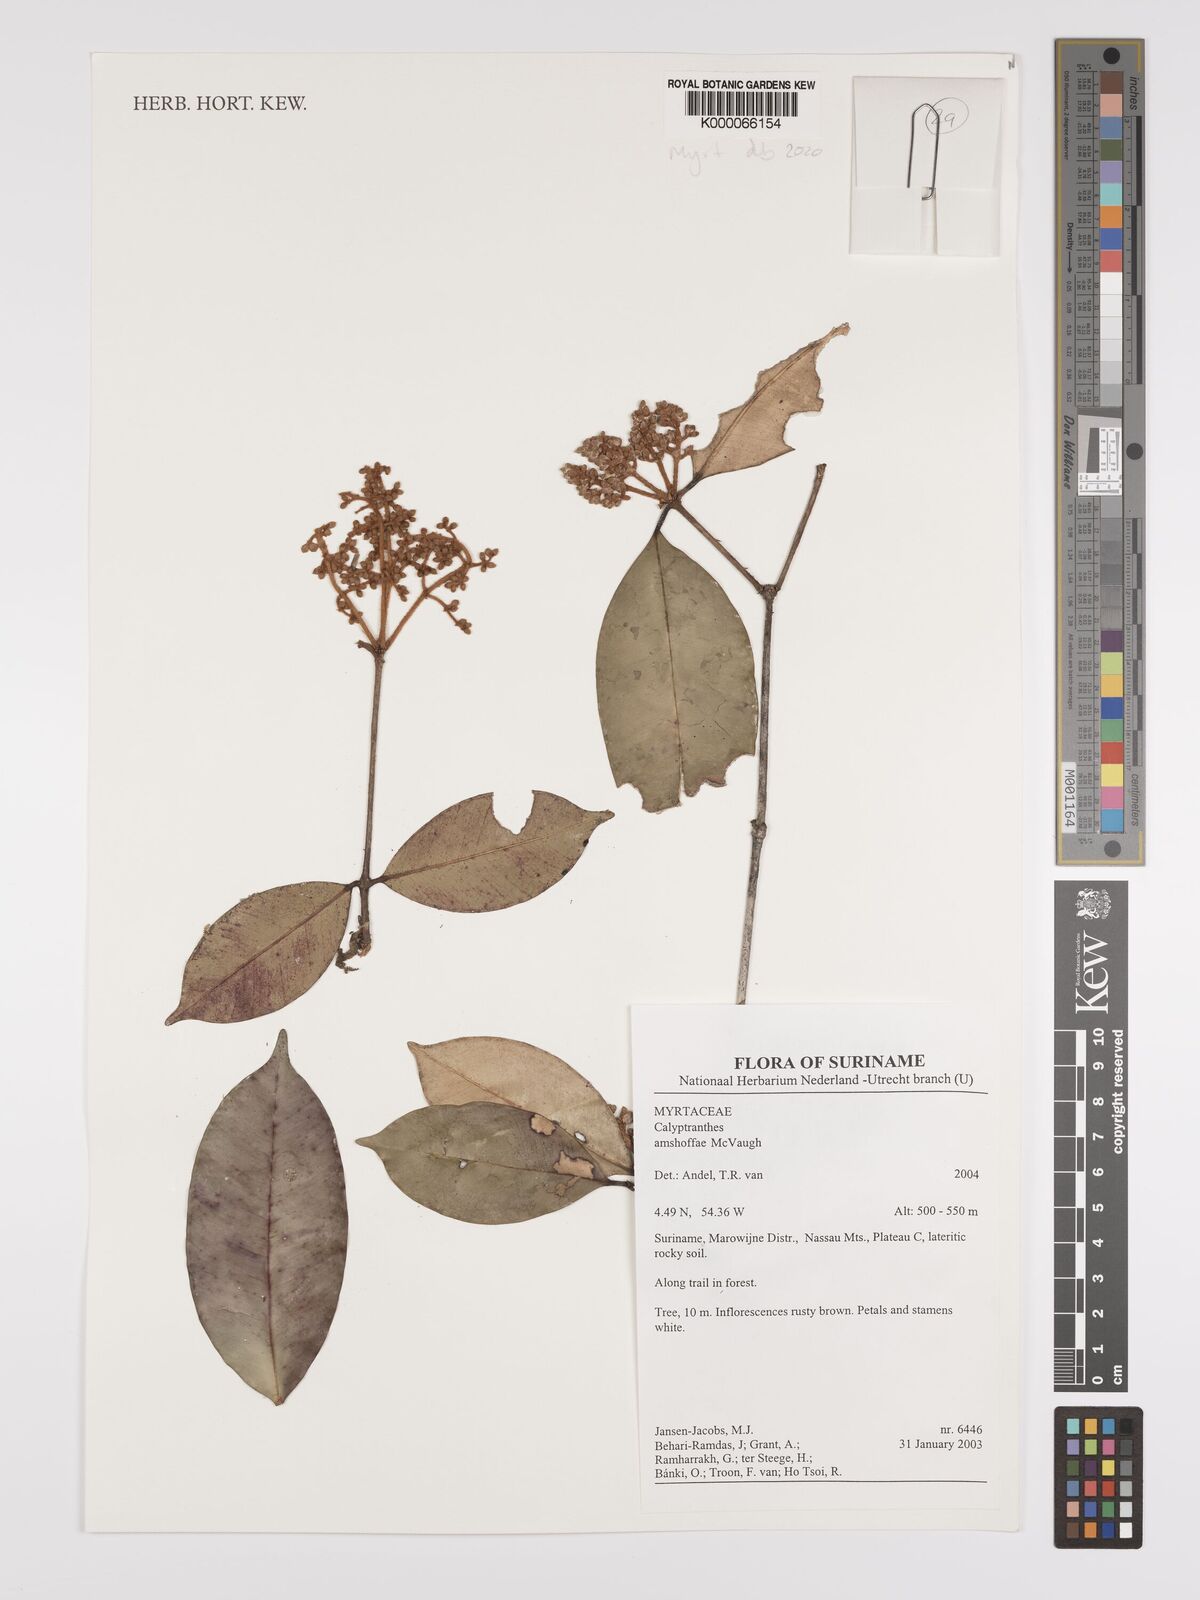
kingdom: Plantae
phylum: Tracheophyta
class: Magnoliopsida
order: Myrtales
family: Myrtaceae
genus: Myrcia
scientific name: Myrcia fasciculata
